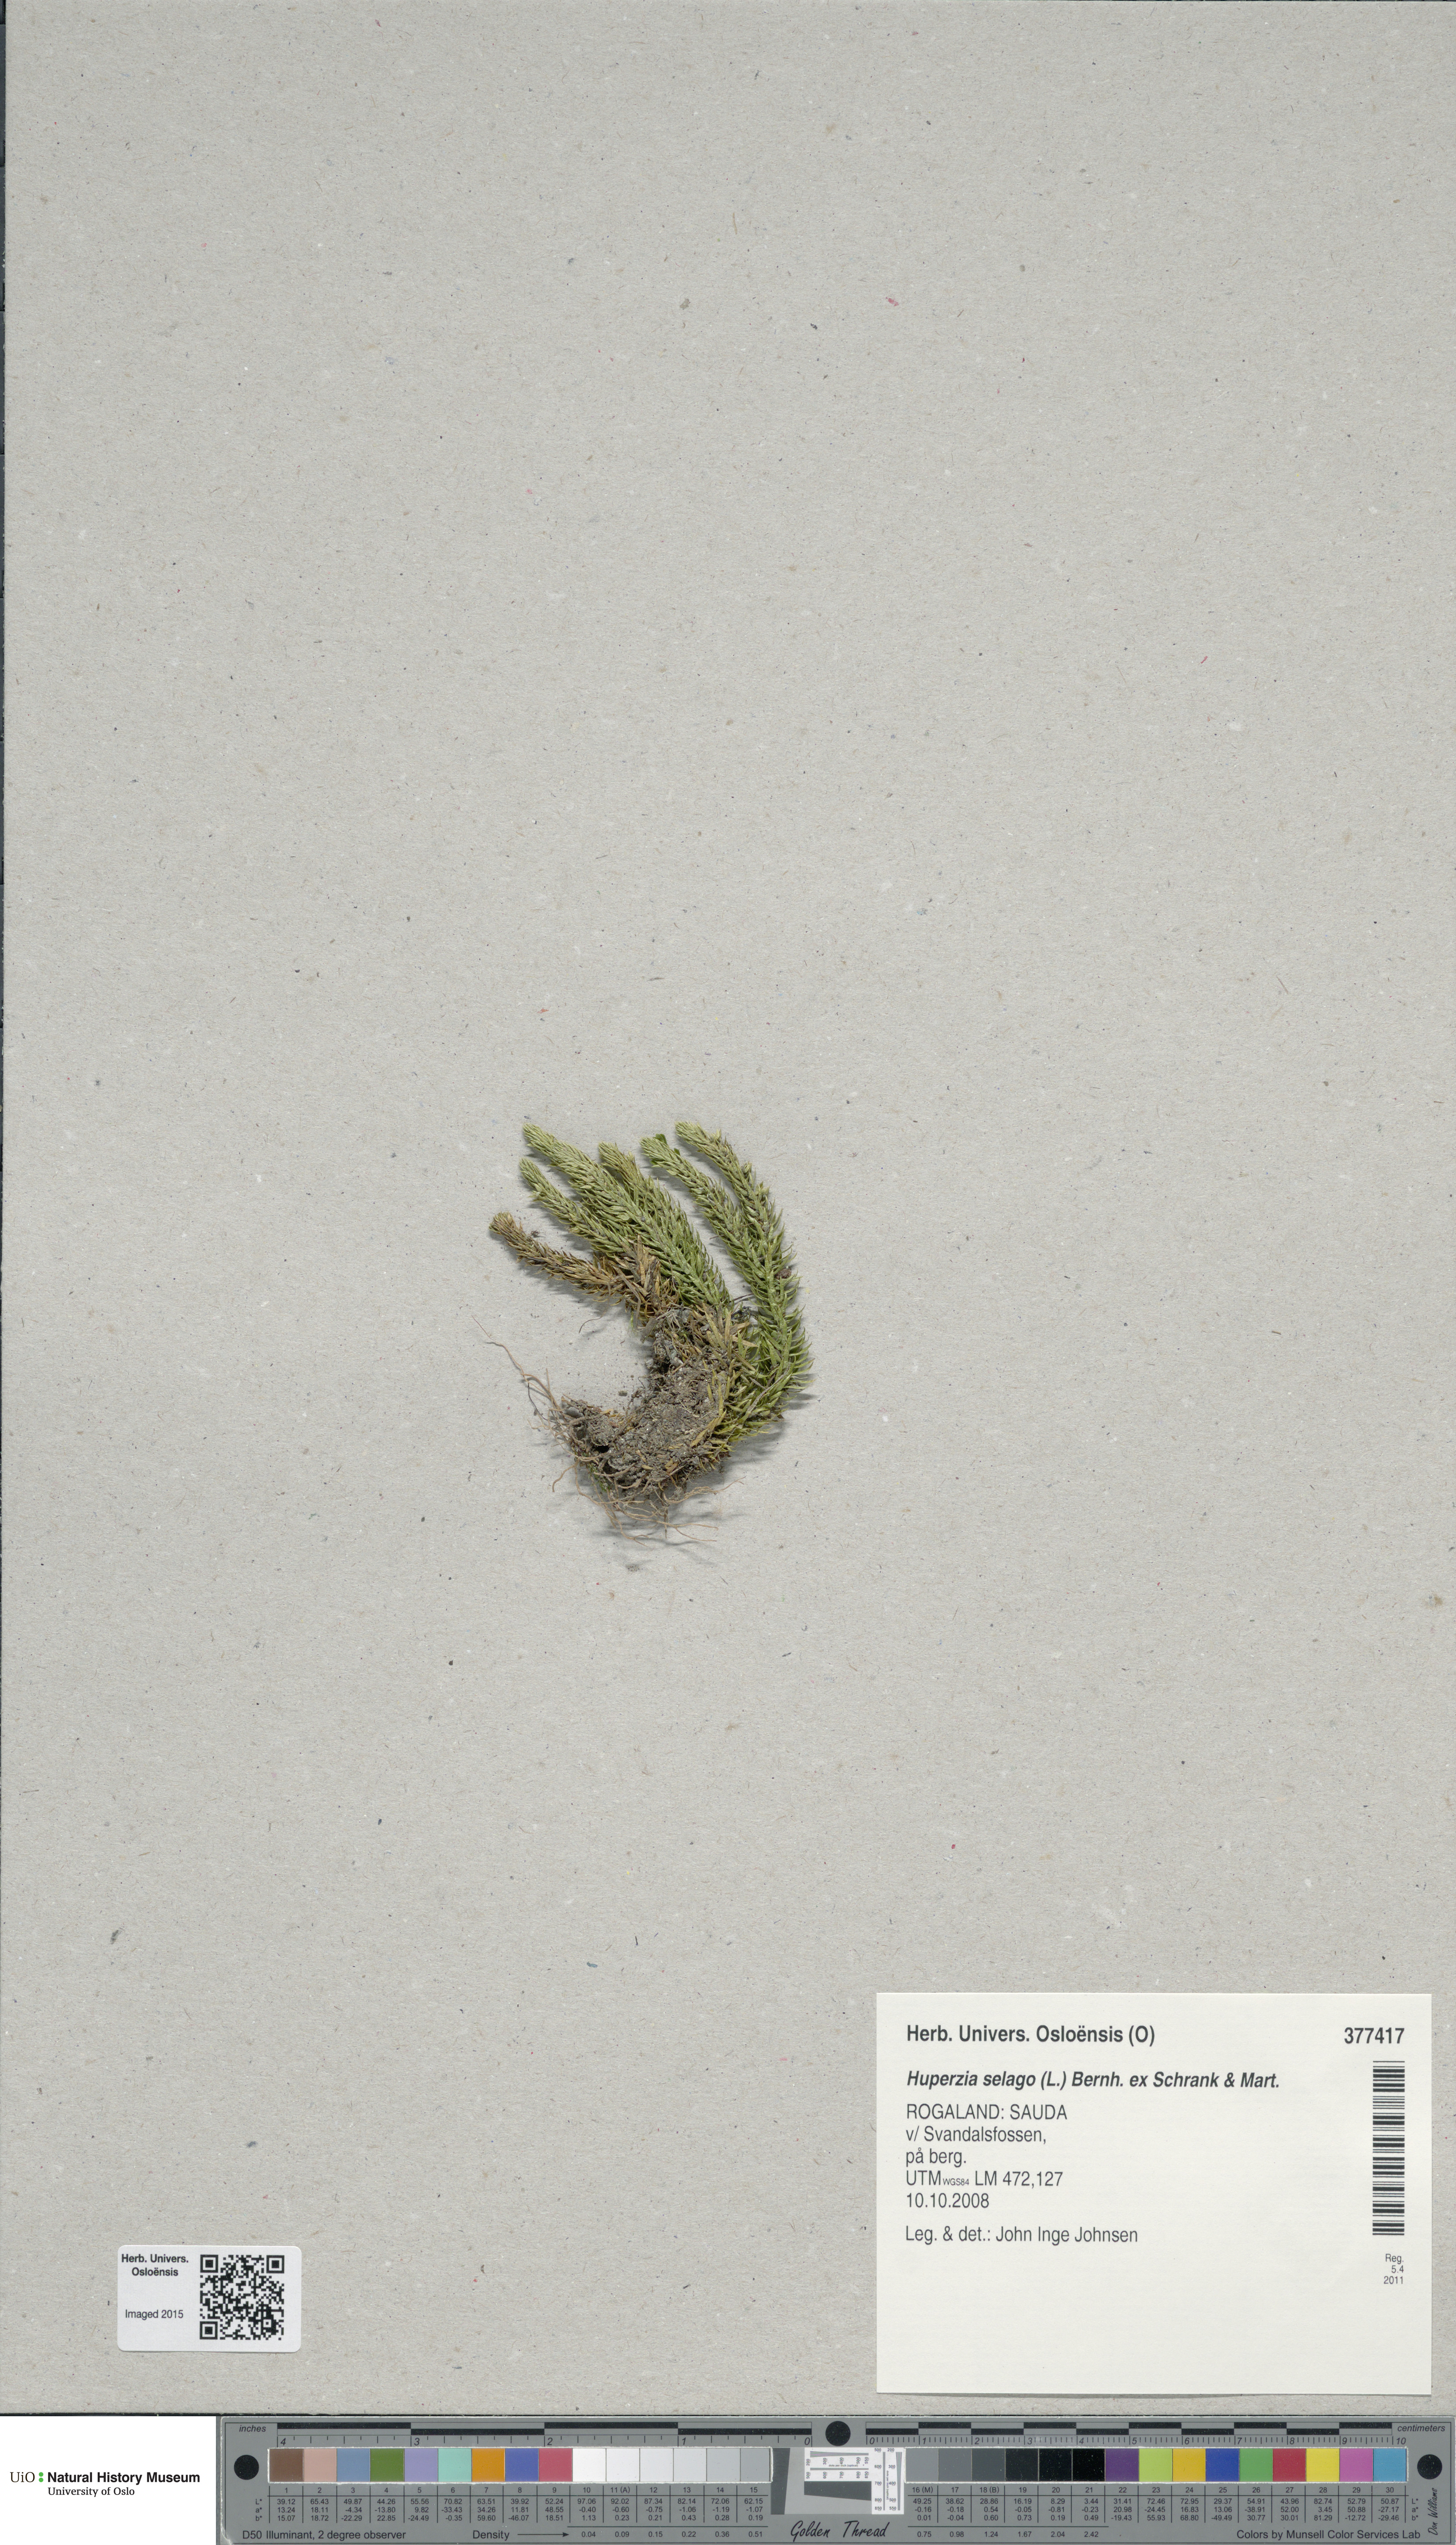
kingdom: Plantae
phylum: Tracheophyta
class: Lycopodiopsida
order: Lycopodiales
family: Lycopodiaceae
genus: Huperzia
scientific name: Huperzia selago
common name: Northern firmoss
